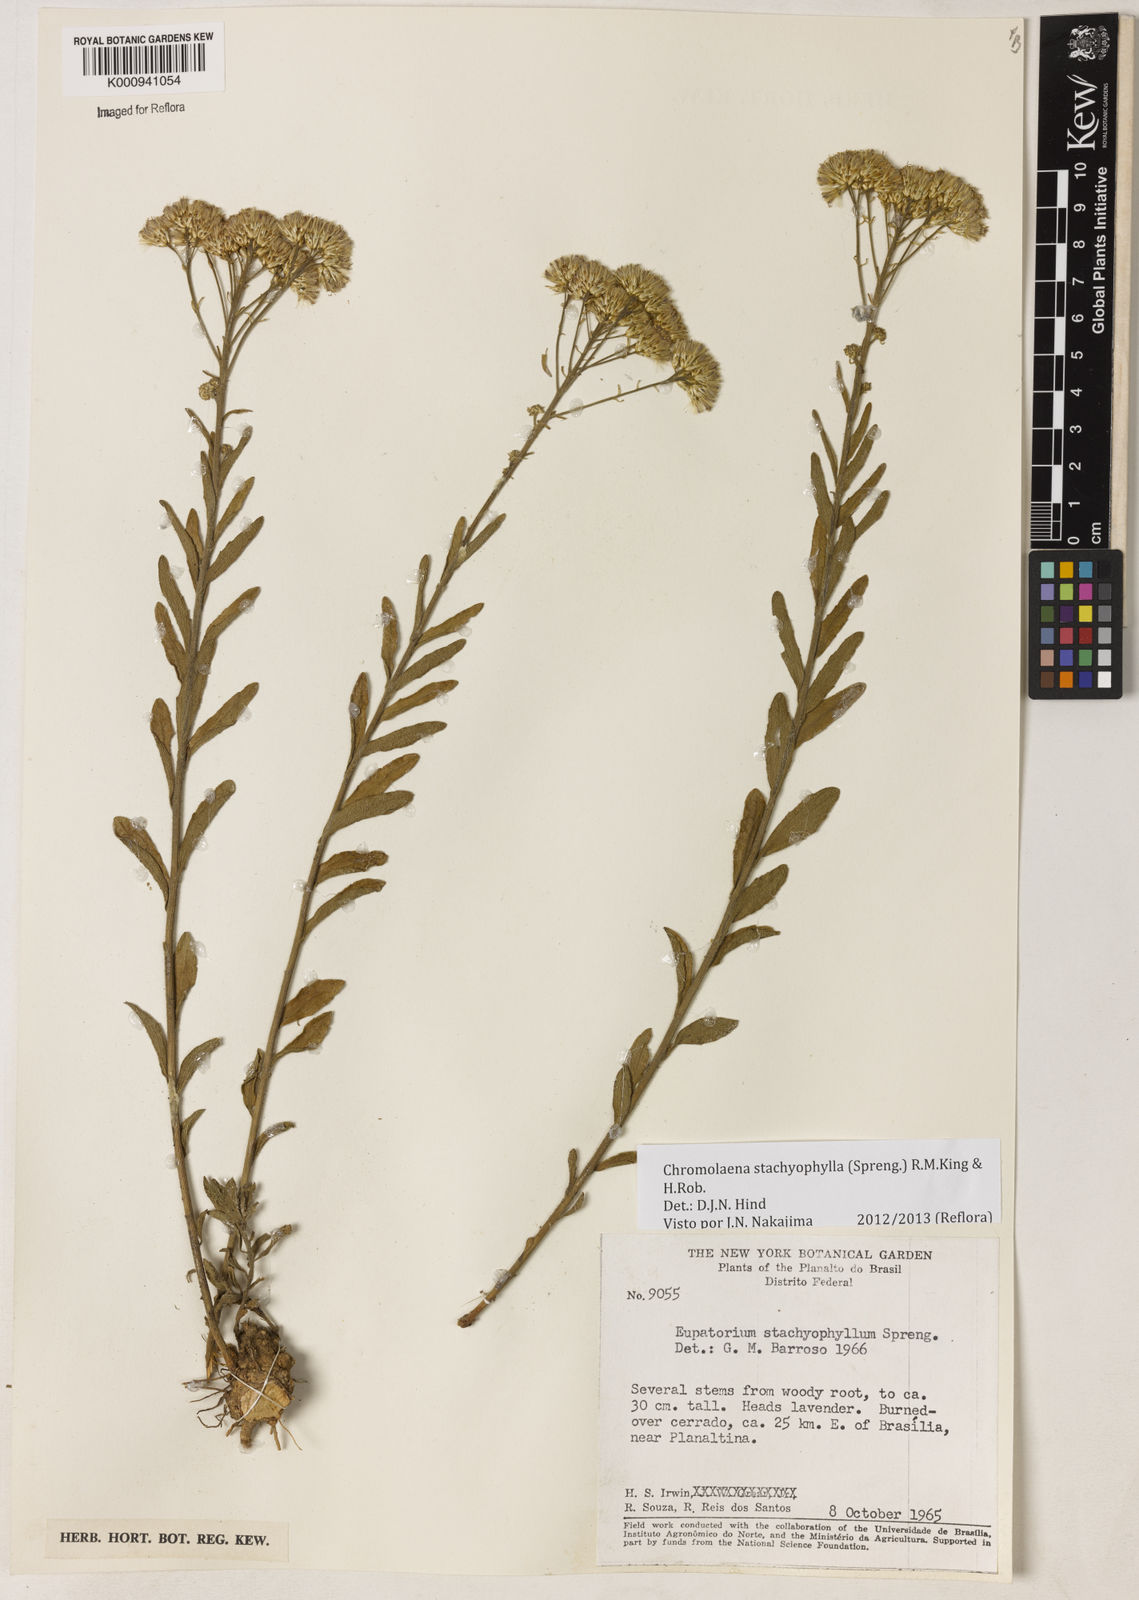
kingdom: Plantae
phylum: Tracheophyta
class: Magnoliopsida
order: Asterales
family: Asteraceae
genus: Chromolaena
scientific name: Chromolaena stachyophylla
